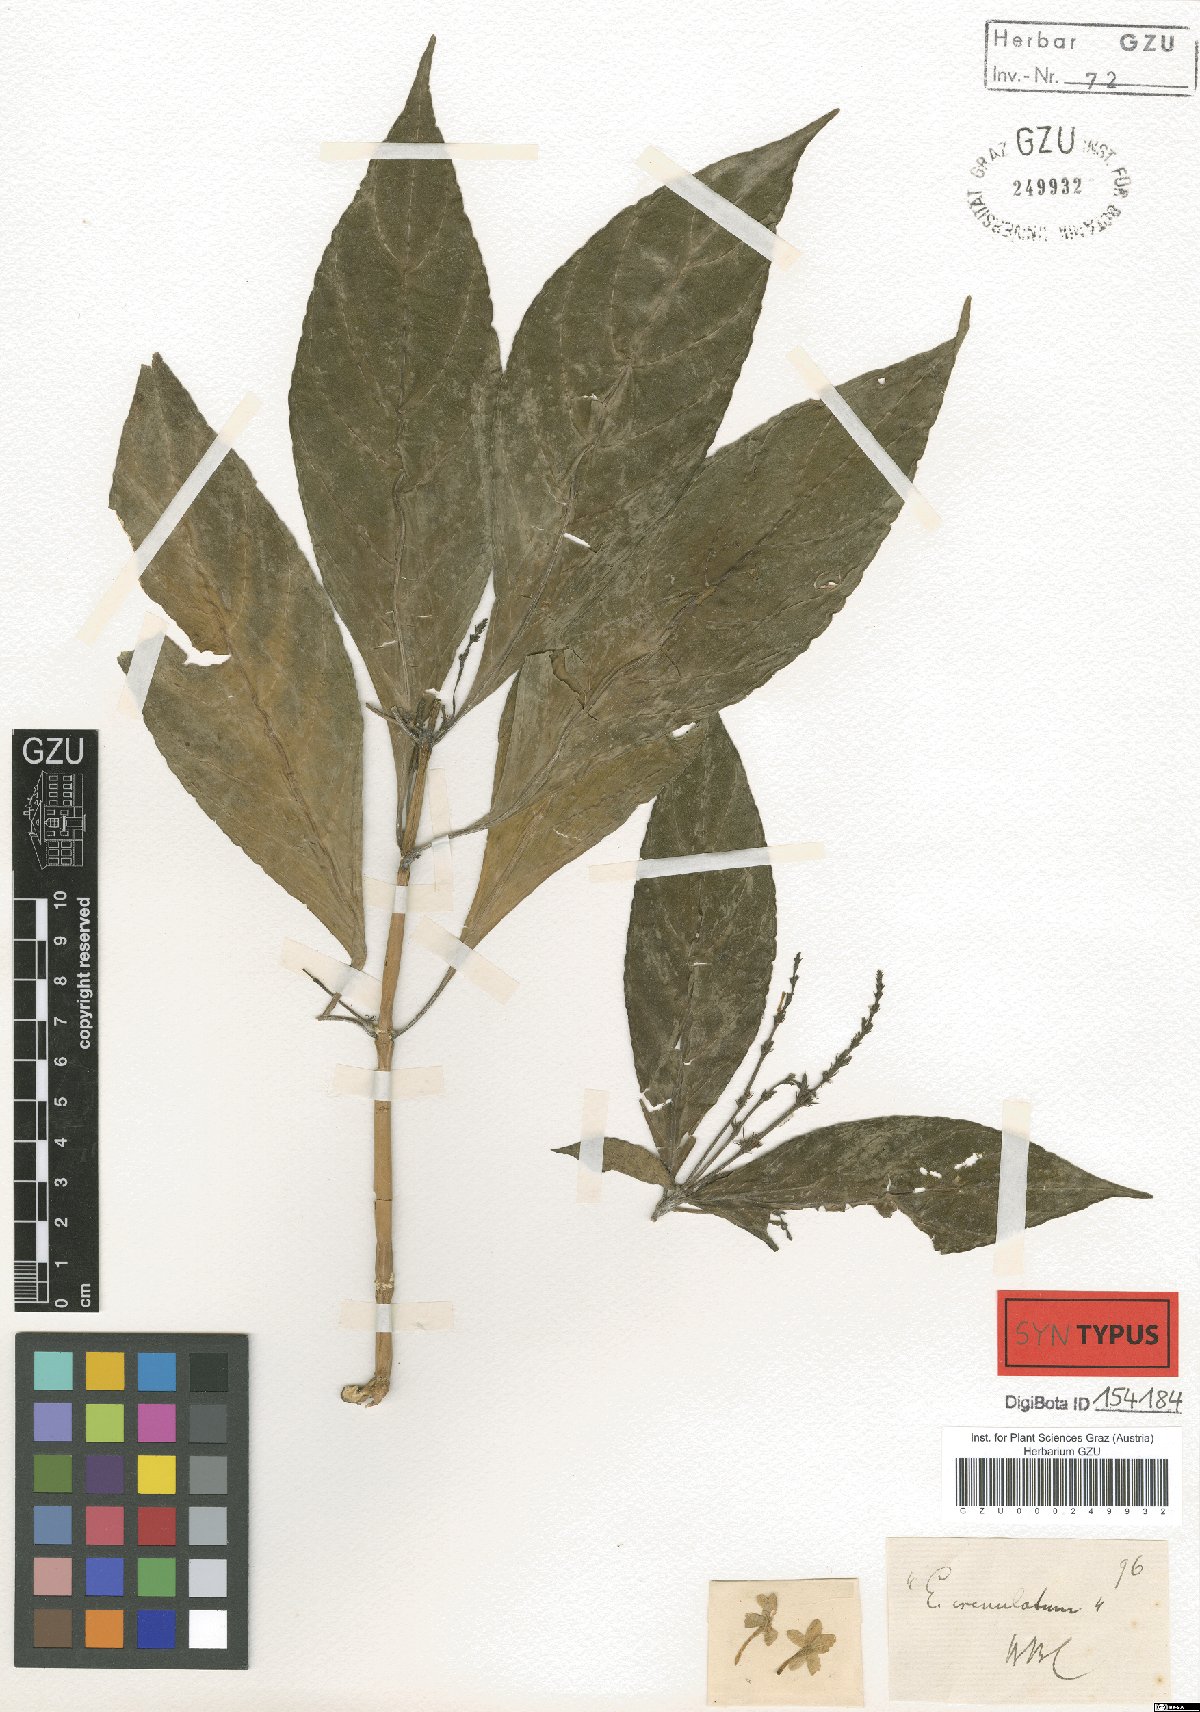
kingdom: Plantae
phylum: Tracheophyta
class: Magnoliopsida
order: Lamiales
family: Acanthaceae
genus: Pseuderanthemum
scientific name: Pseuderanthemum crenulatum
